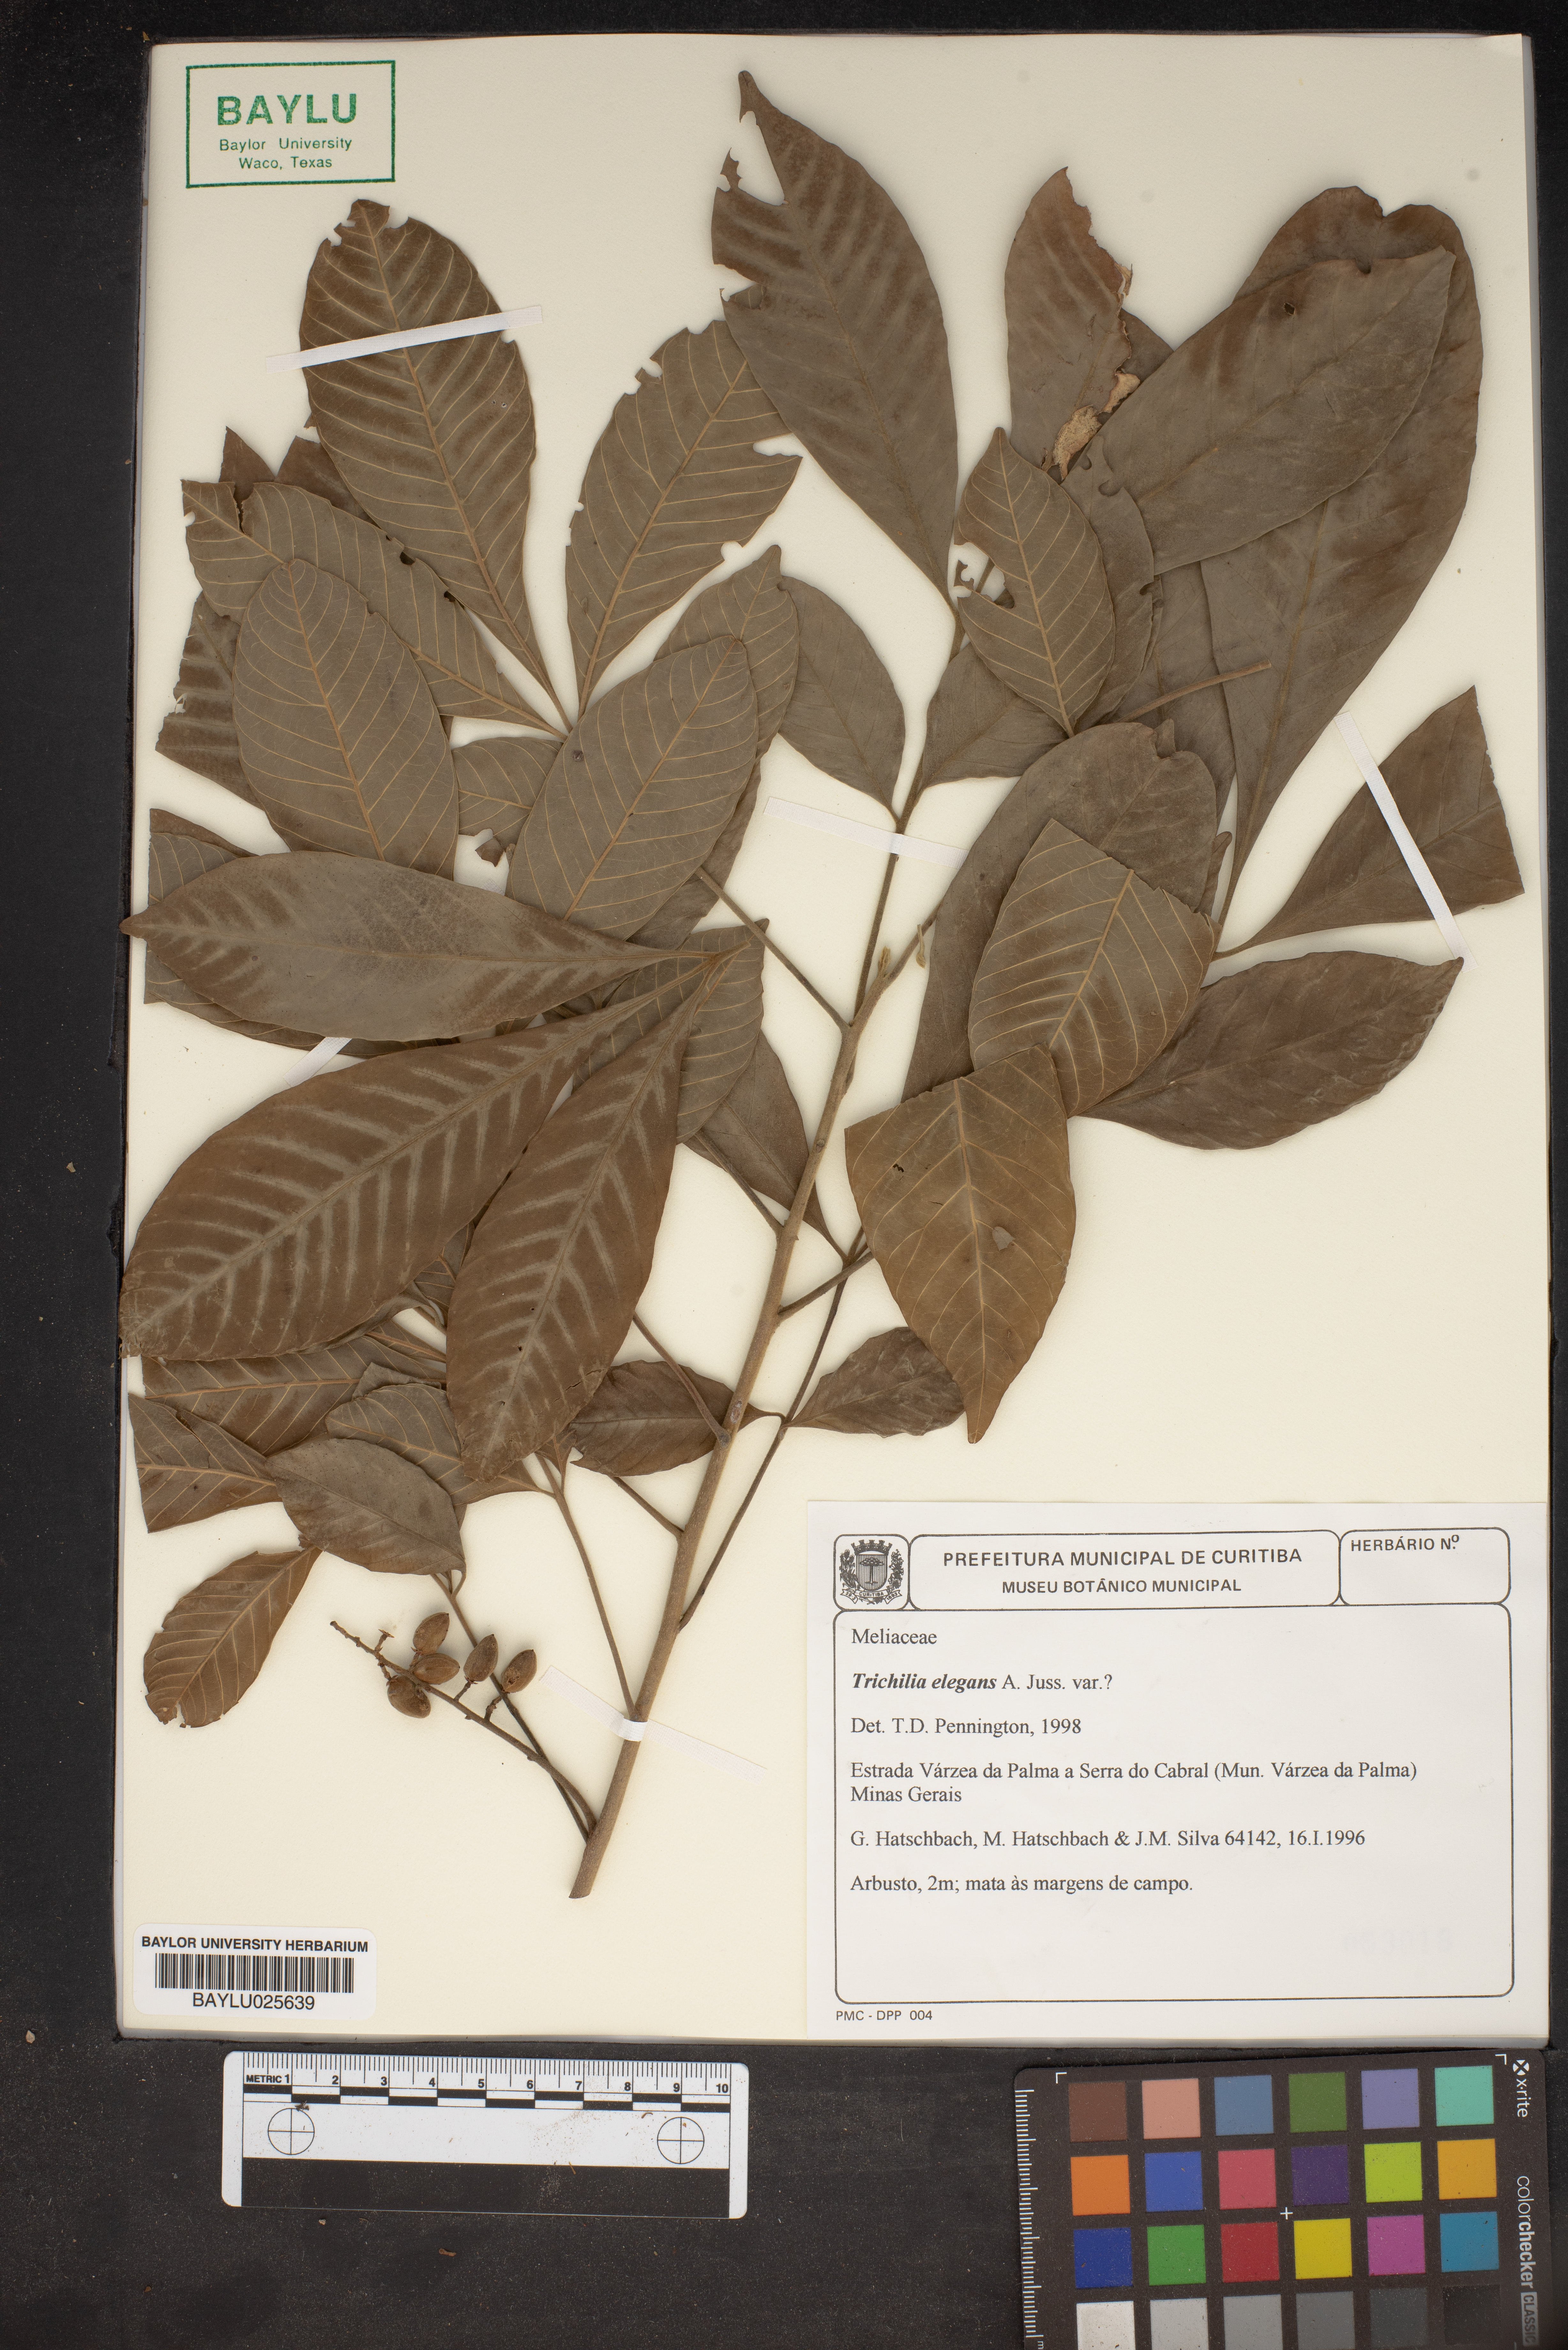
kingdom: Plantae
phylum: Tracheophyta
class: Magnoliopsida
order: Sapindales
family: Meliaceae
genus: Trichilia
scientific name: Trichilia elegans
